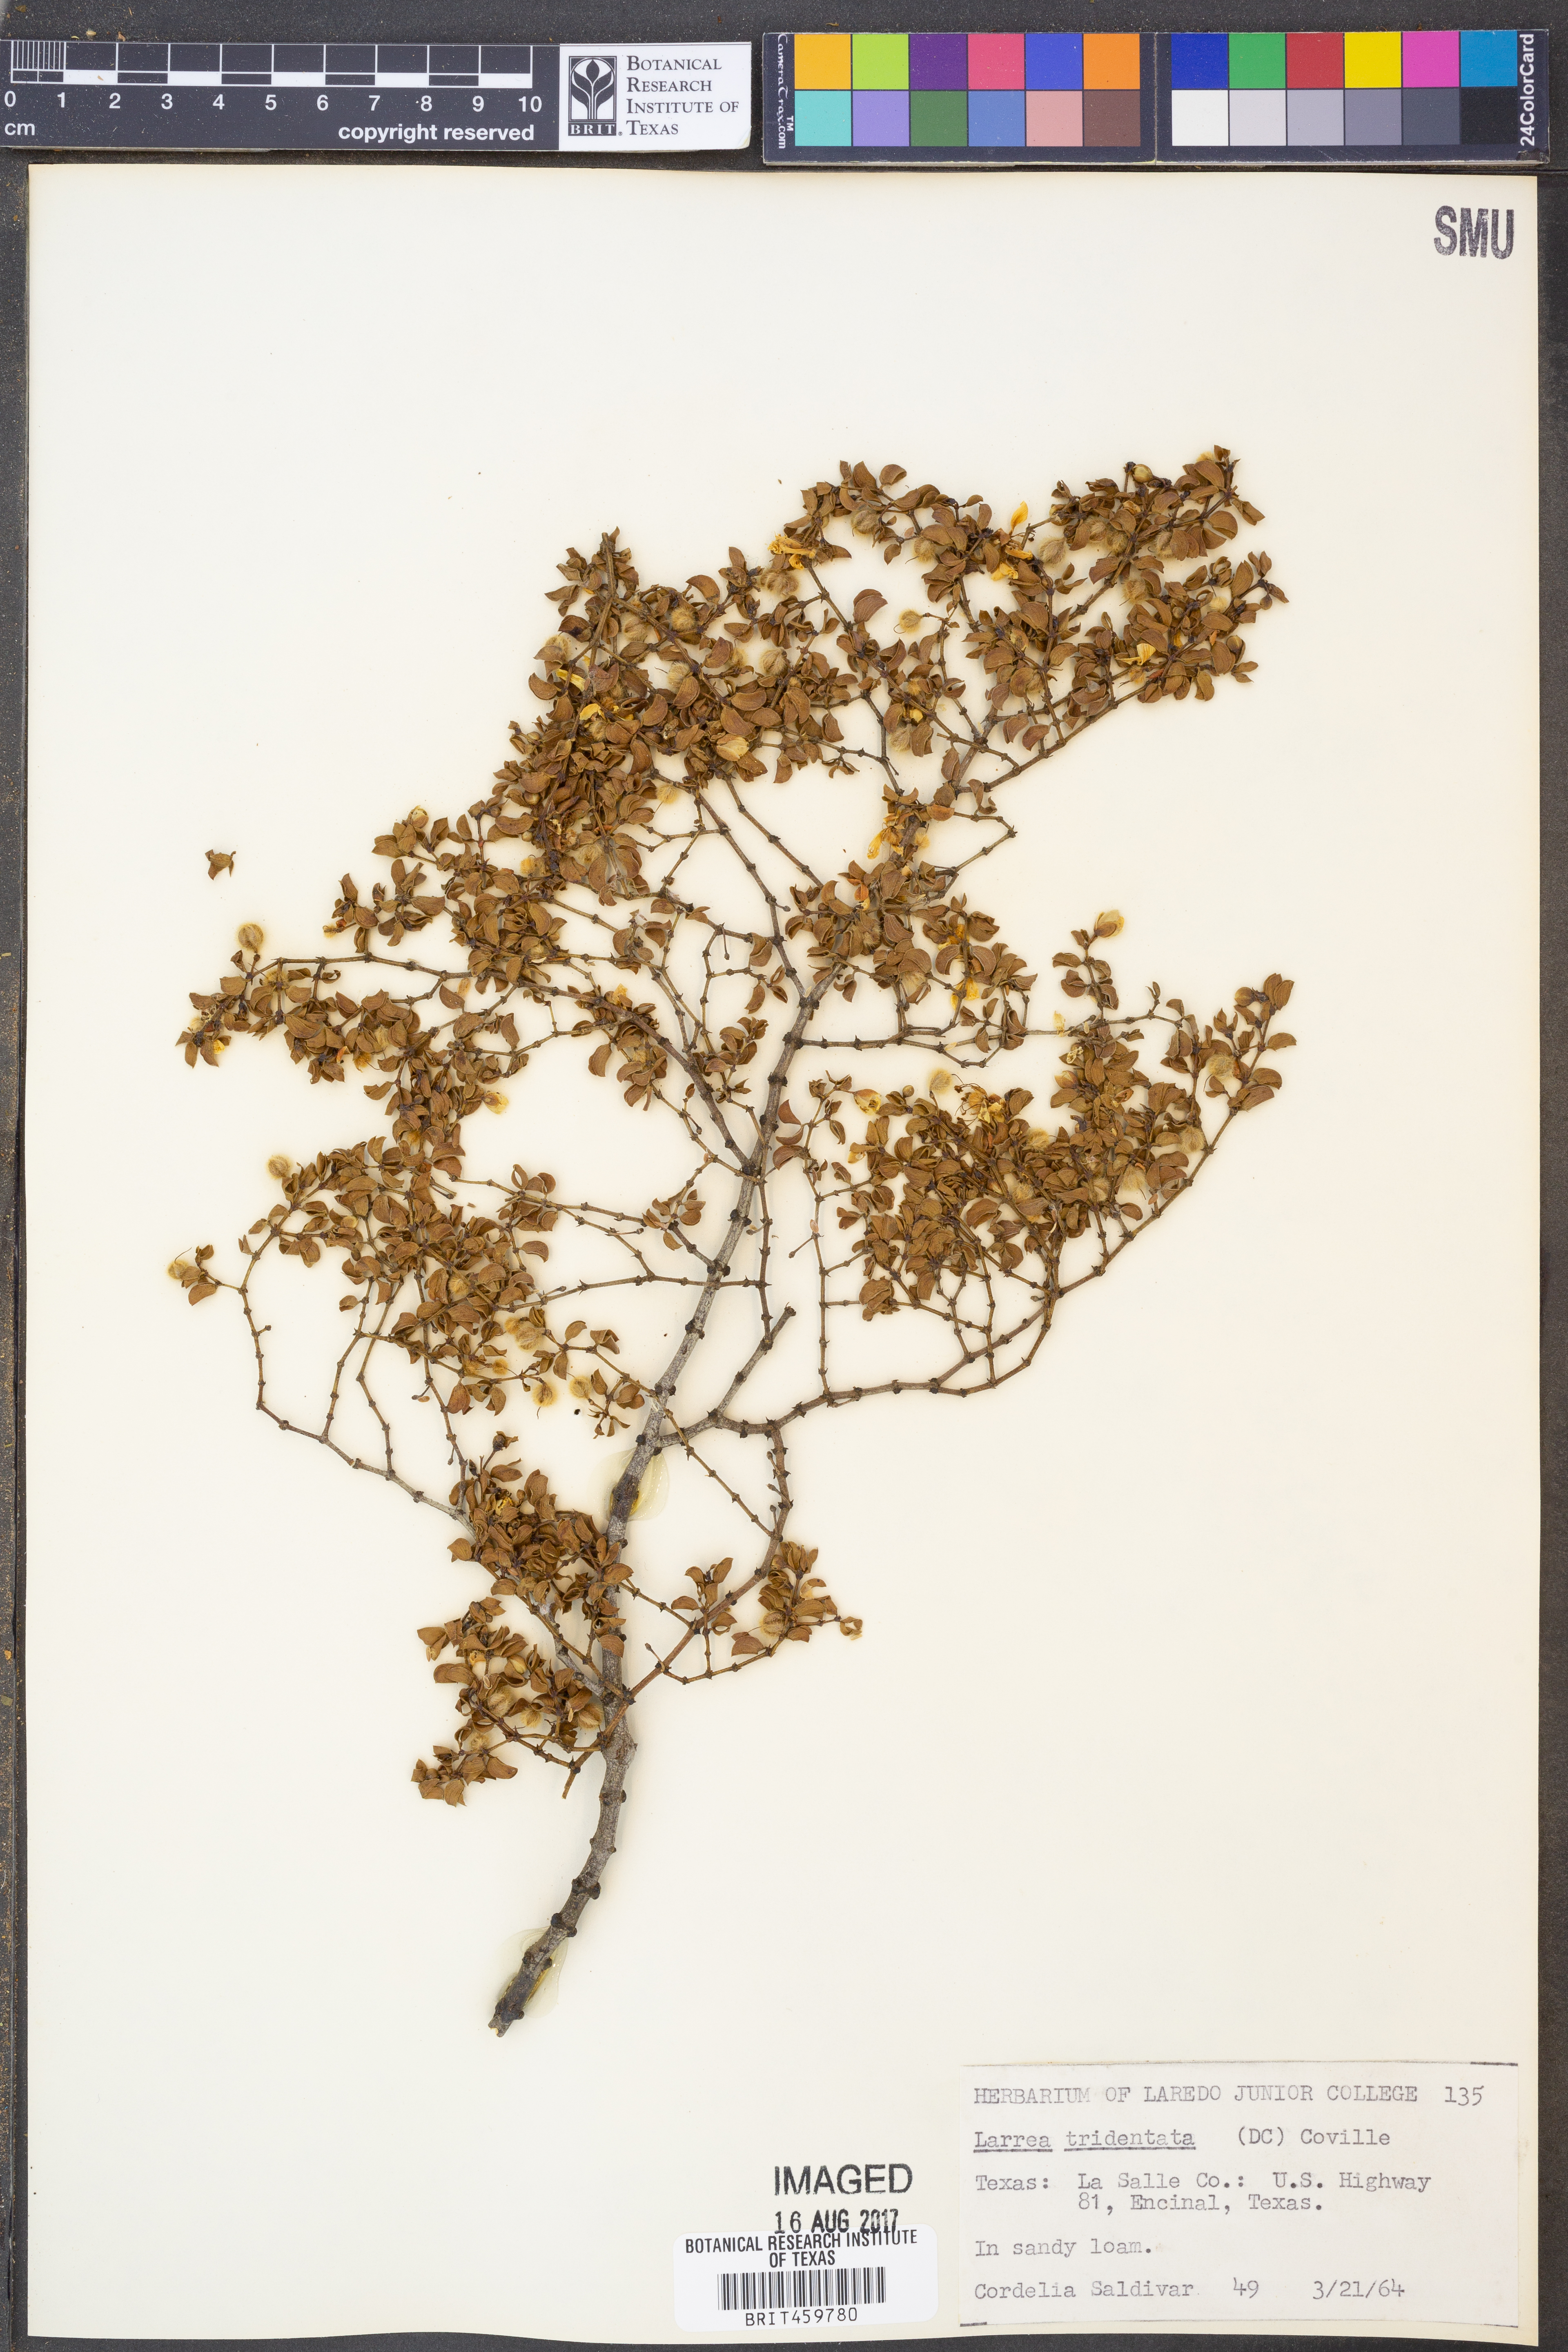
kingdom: Plantae
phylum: Tracheophyta
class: Magnoliopsida
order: Zygophyllales
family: Zygophyllaceae
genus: Larrea
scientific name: Larrea tridentata
